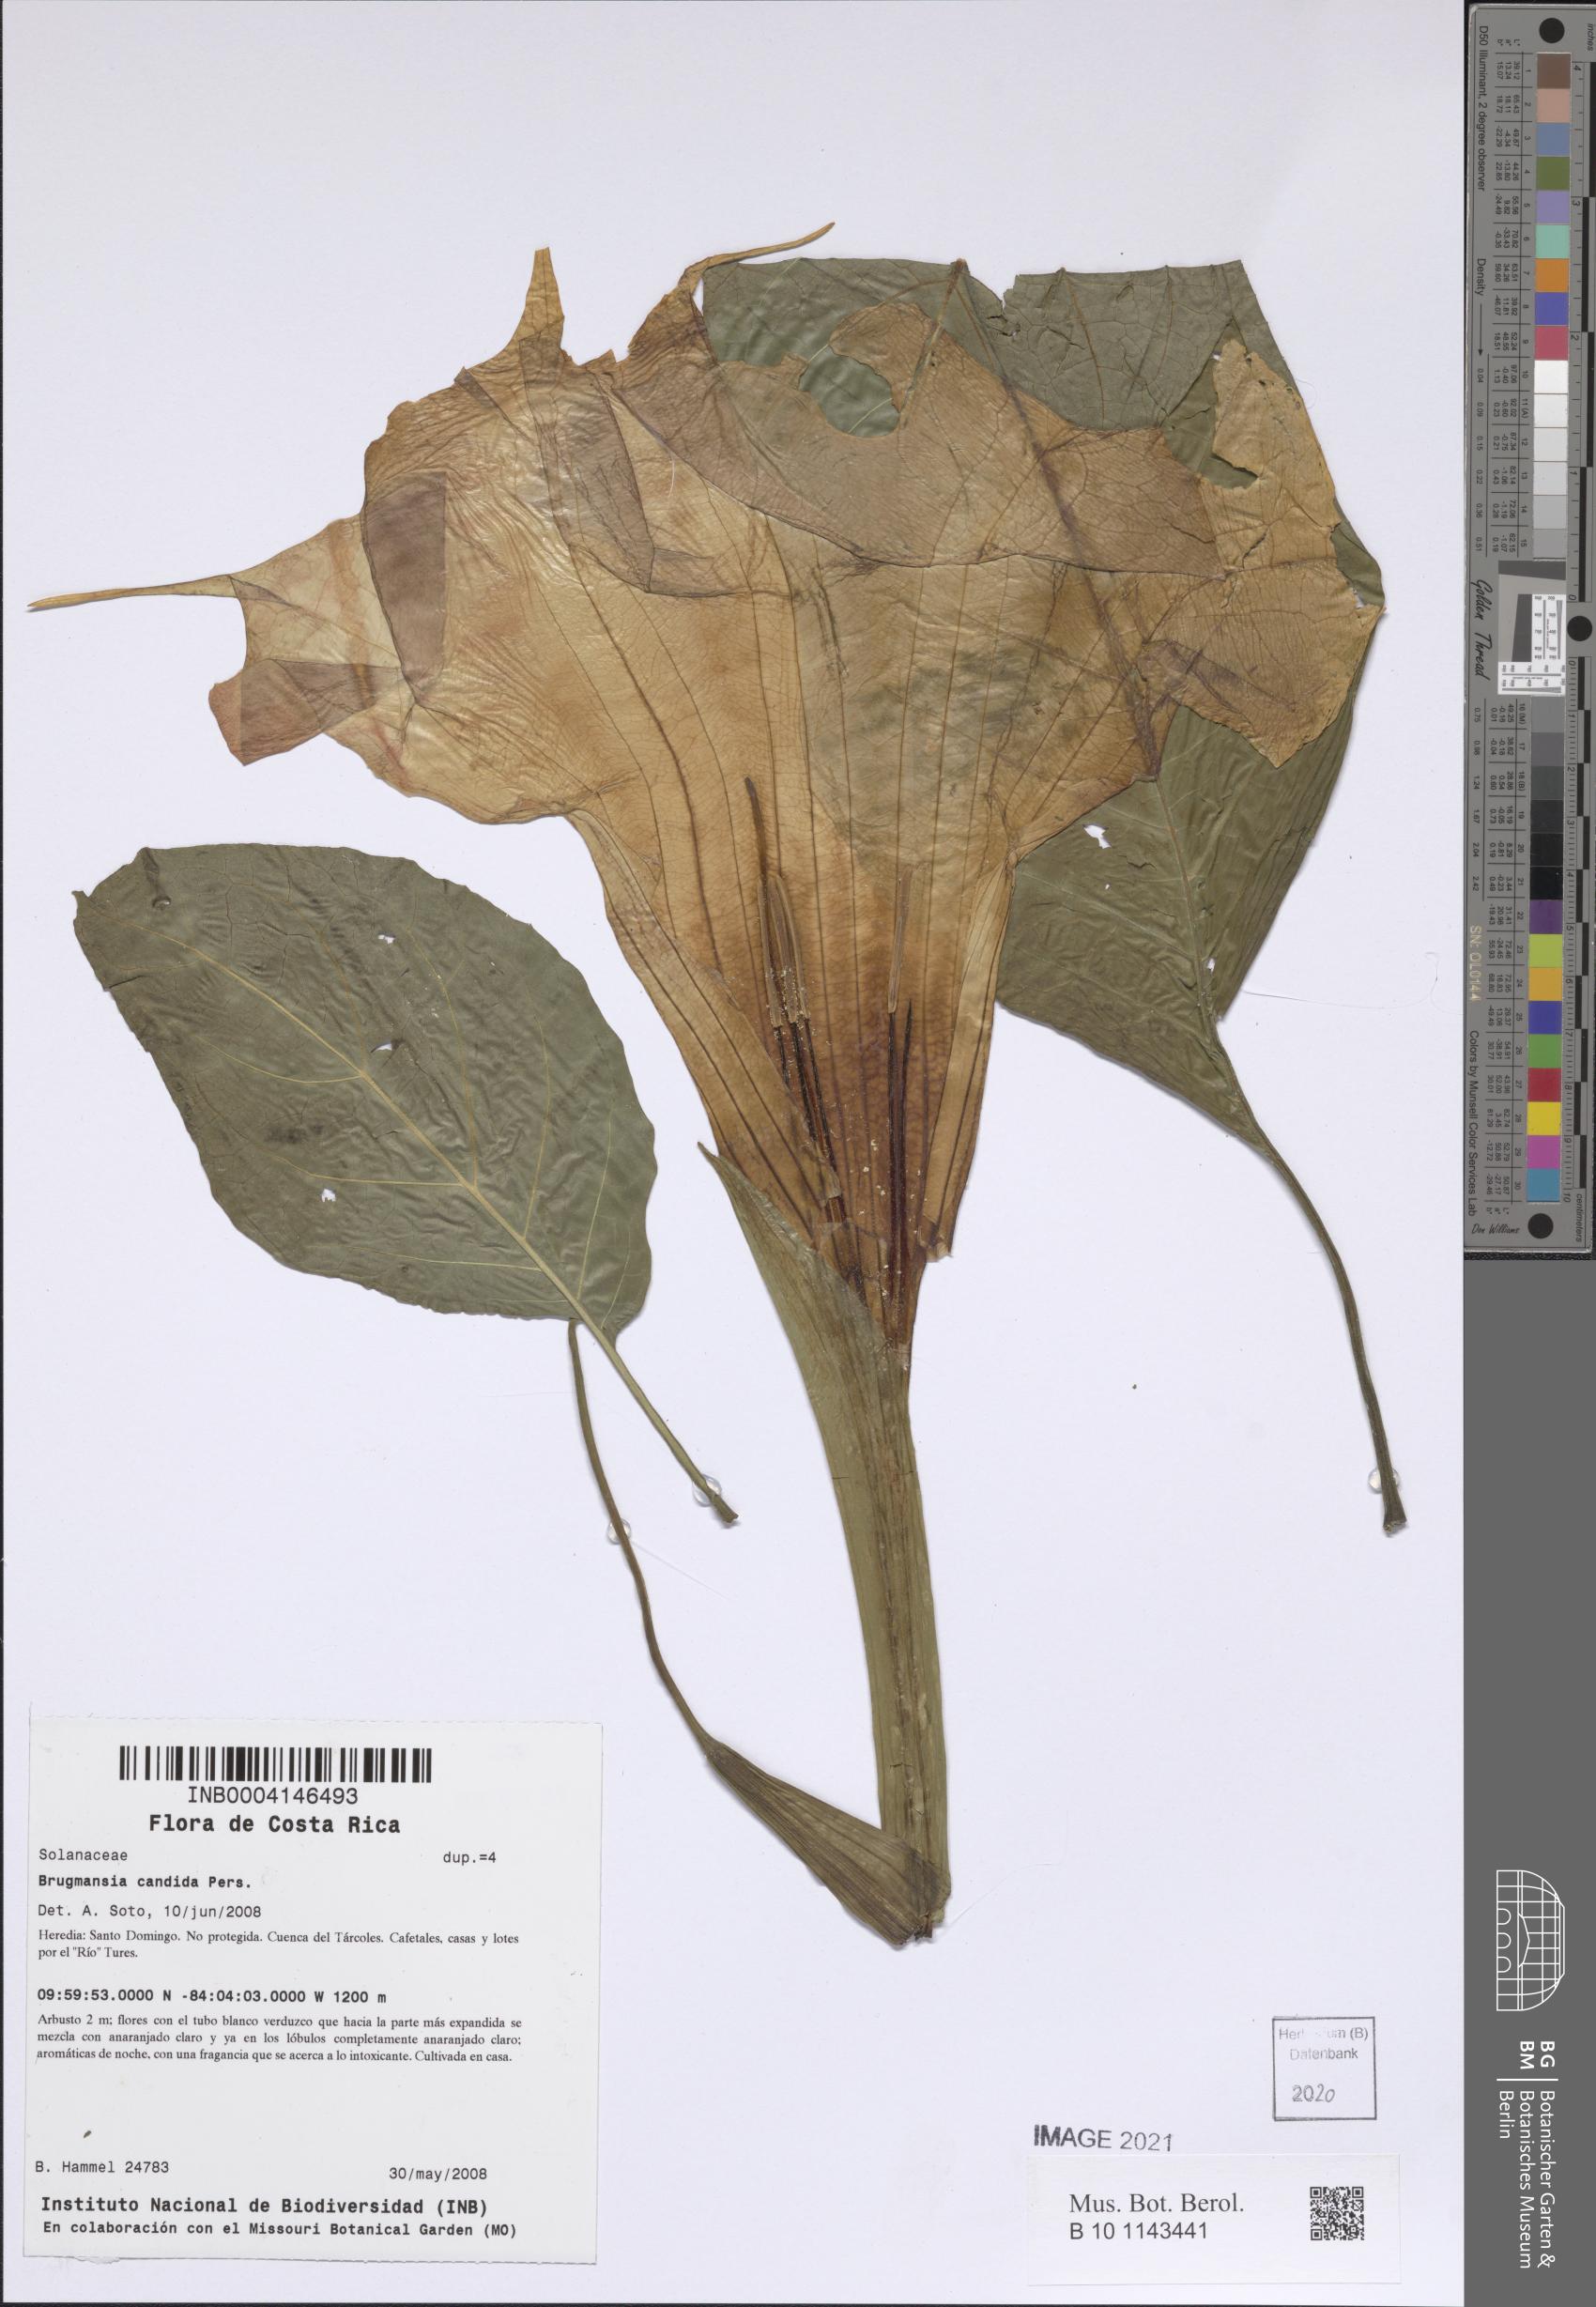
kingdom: Plantae
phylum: Tracheophyta
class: Magnoliopsida
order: Solanales
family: Solanaceae
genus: Brugmansia
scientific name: Brugmansia candida
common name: Angel's-trumpet
